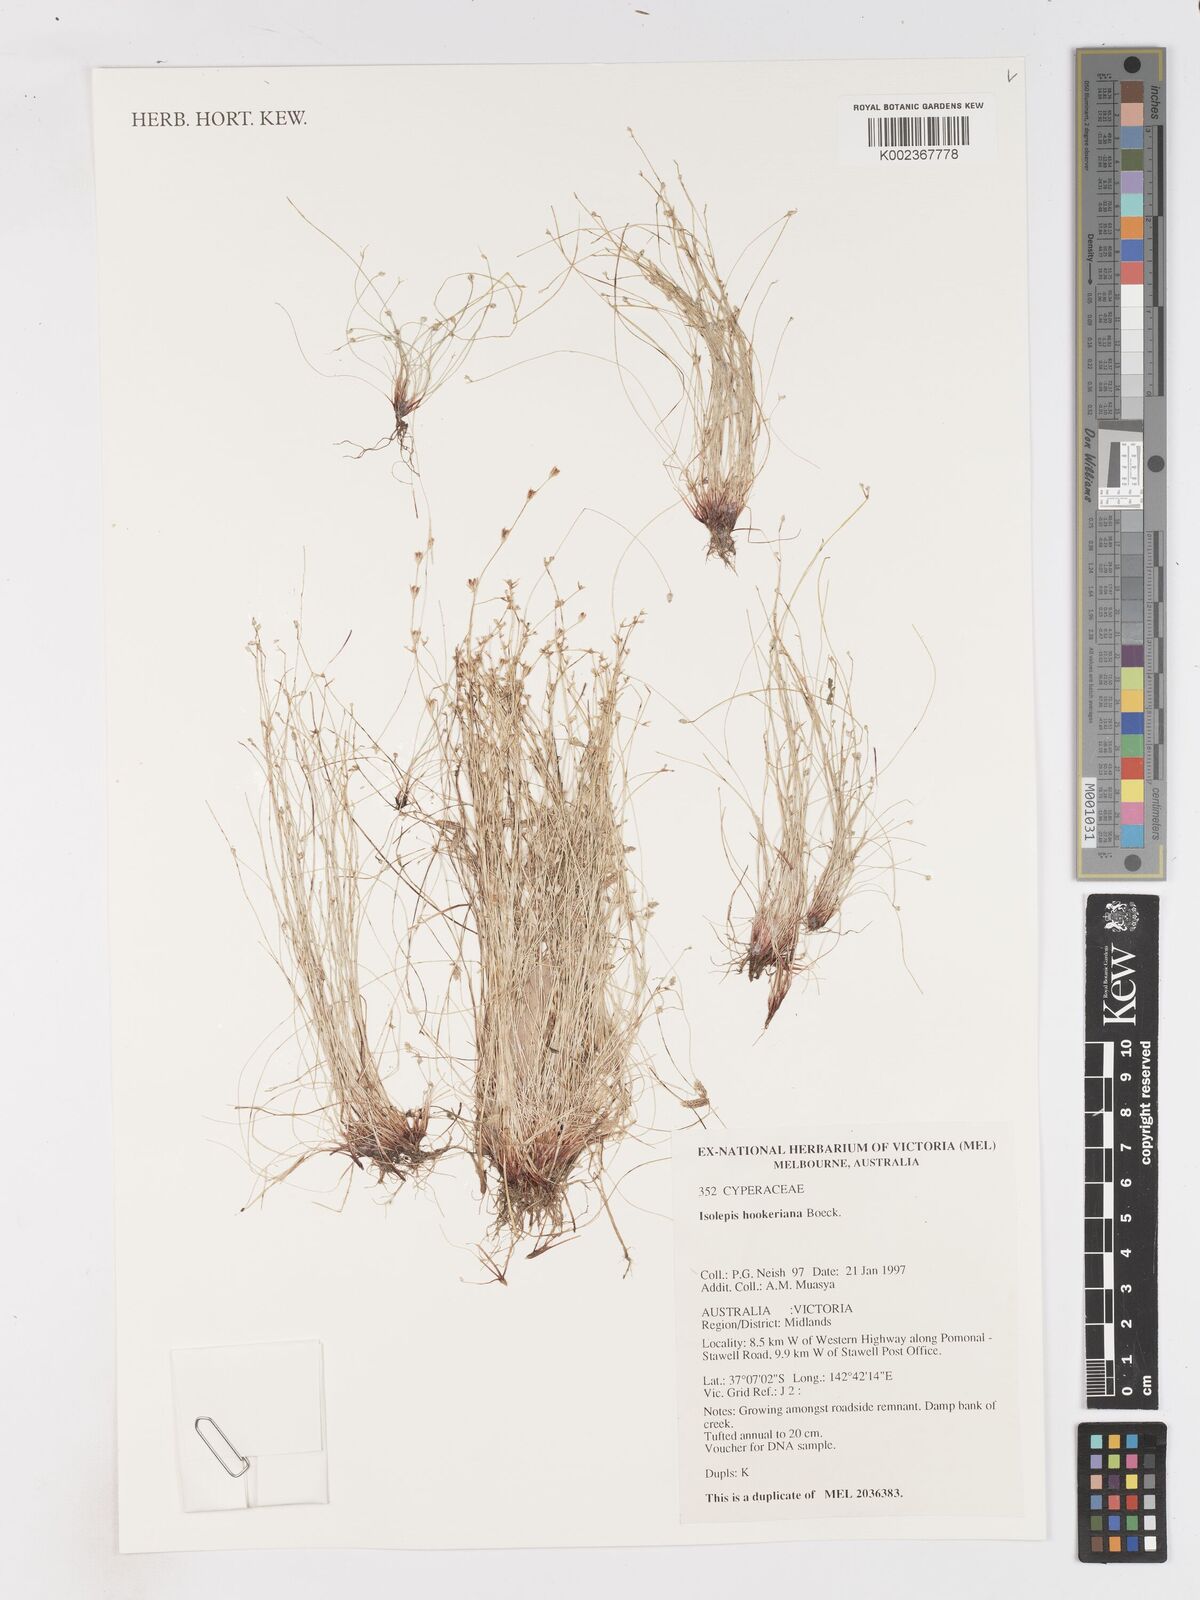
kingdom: Plantae
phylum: Tracheophyta
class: Liliopsida
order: Poales
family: Cyperaceae
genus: Isolepis
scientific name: Isolepis multicaulis
